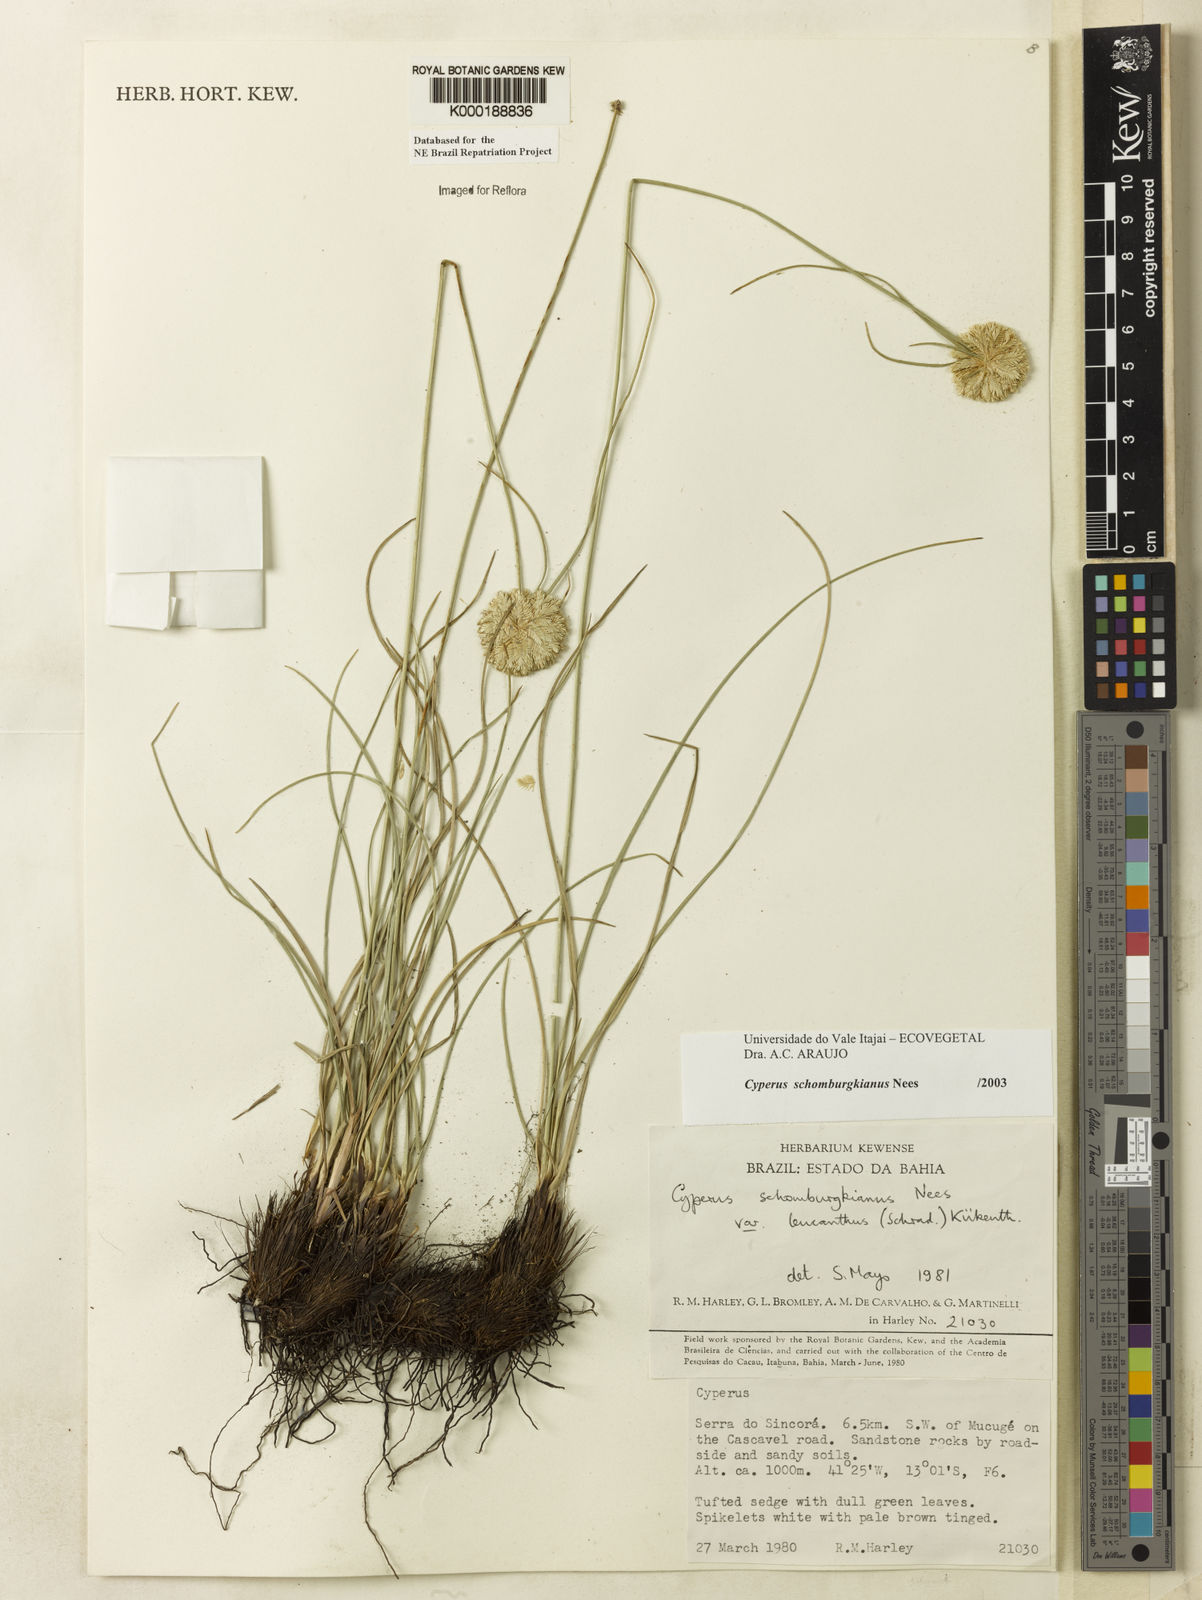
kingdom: Plantae
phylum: Tracheophyta
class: Liliopsida
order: Poales
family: Cyperaceae
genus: Cyperus
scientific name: Cyperus schomburgkianus
